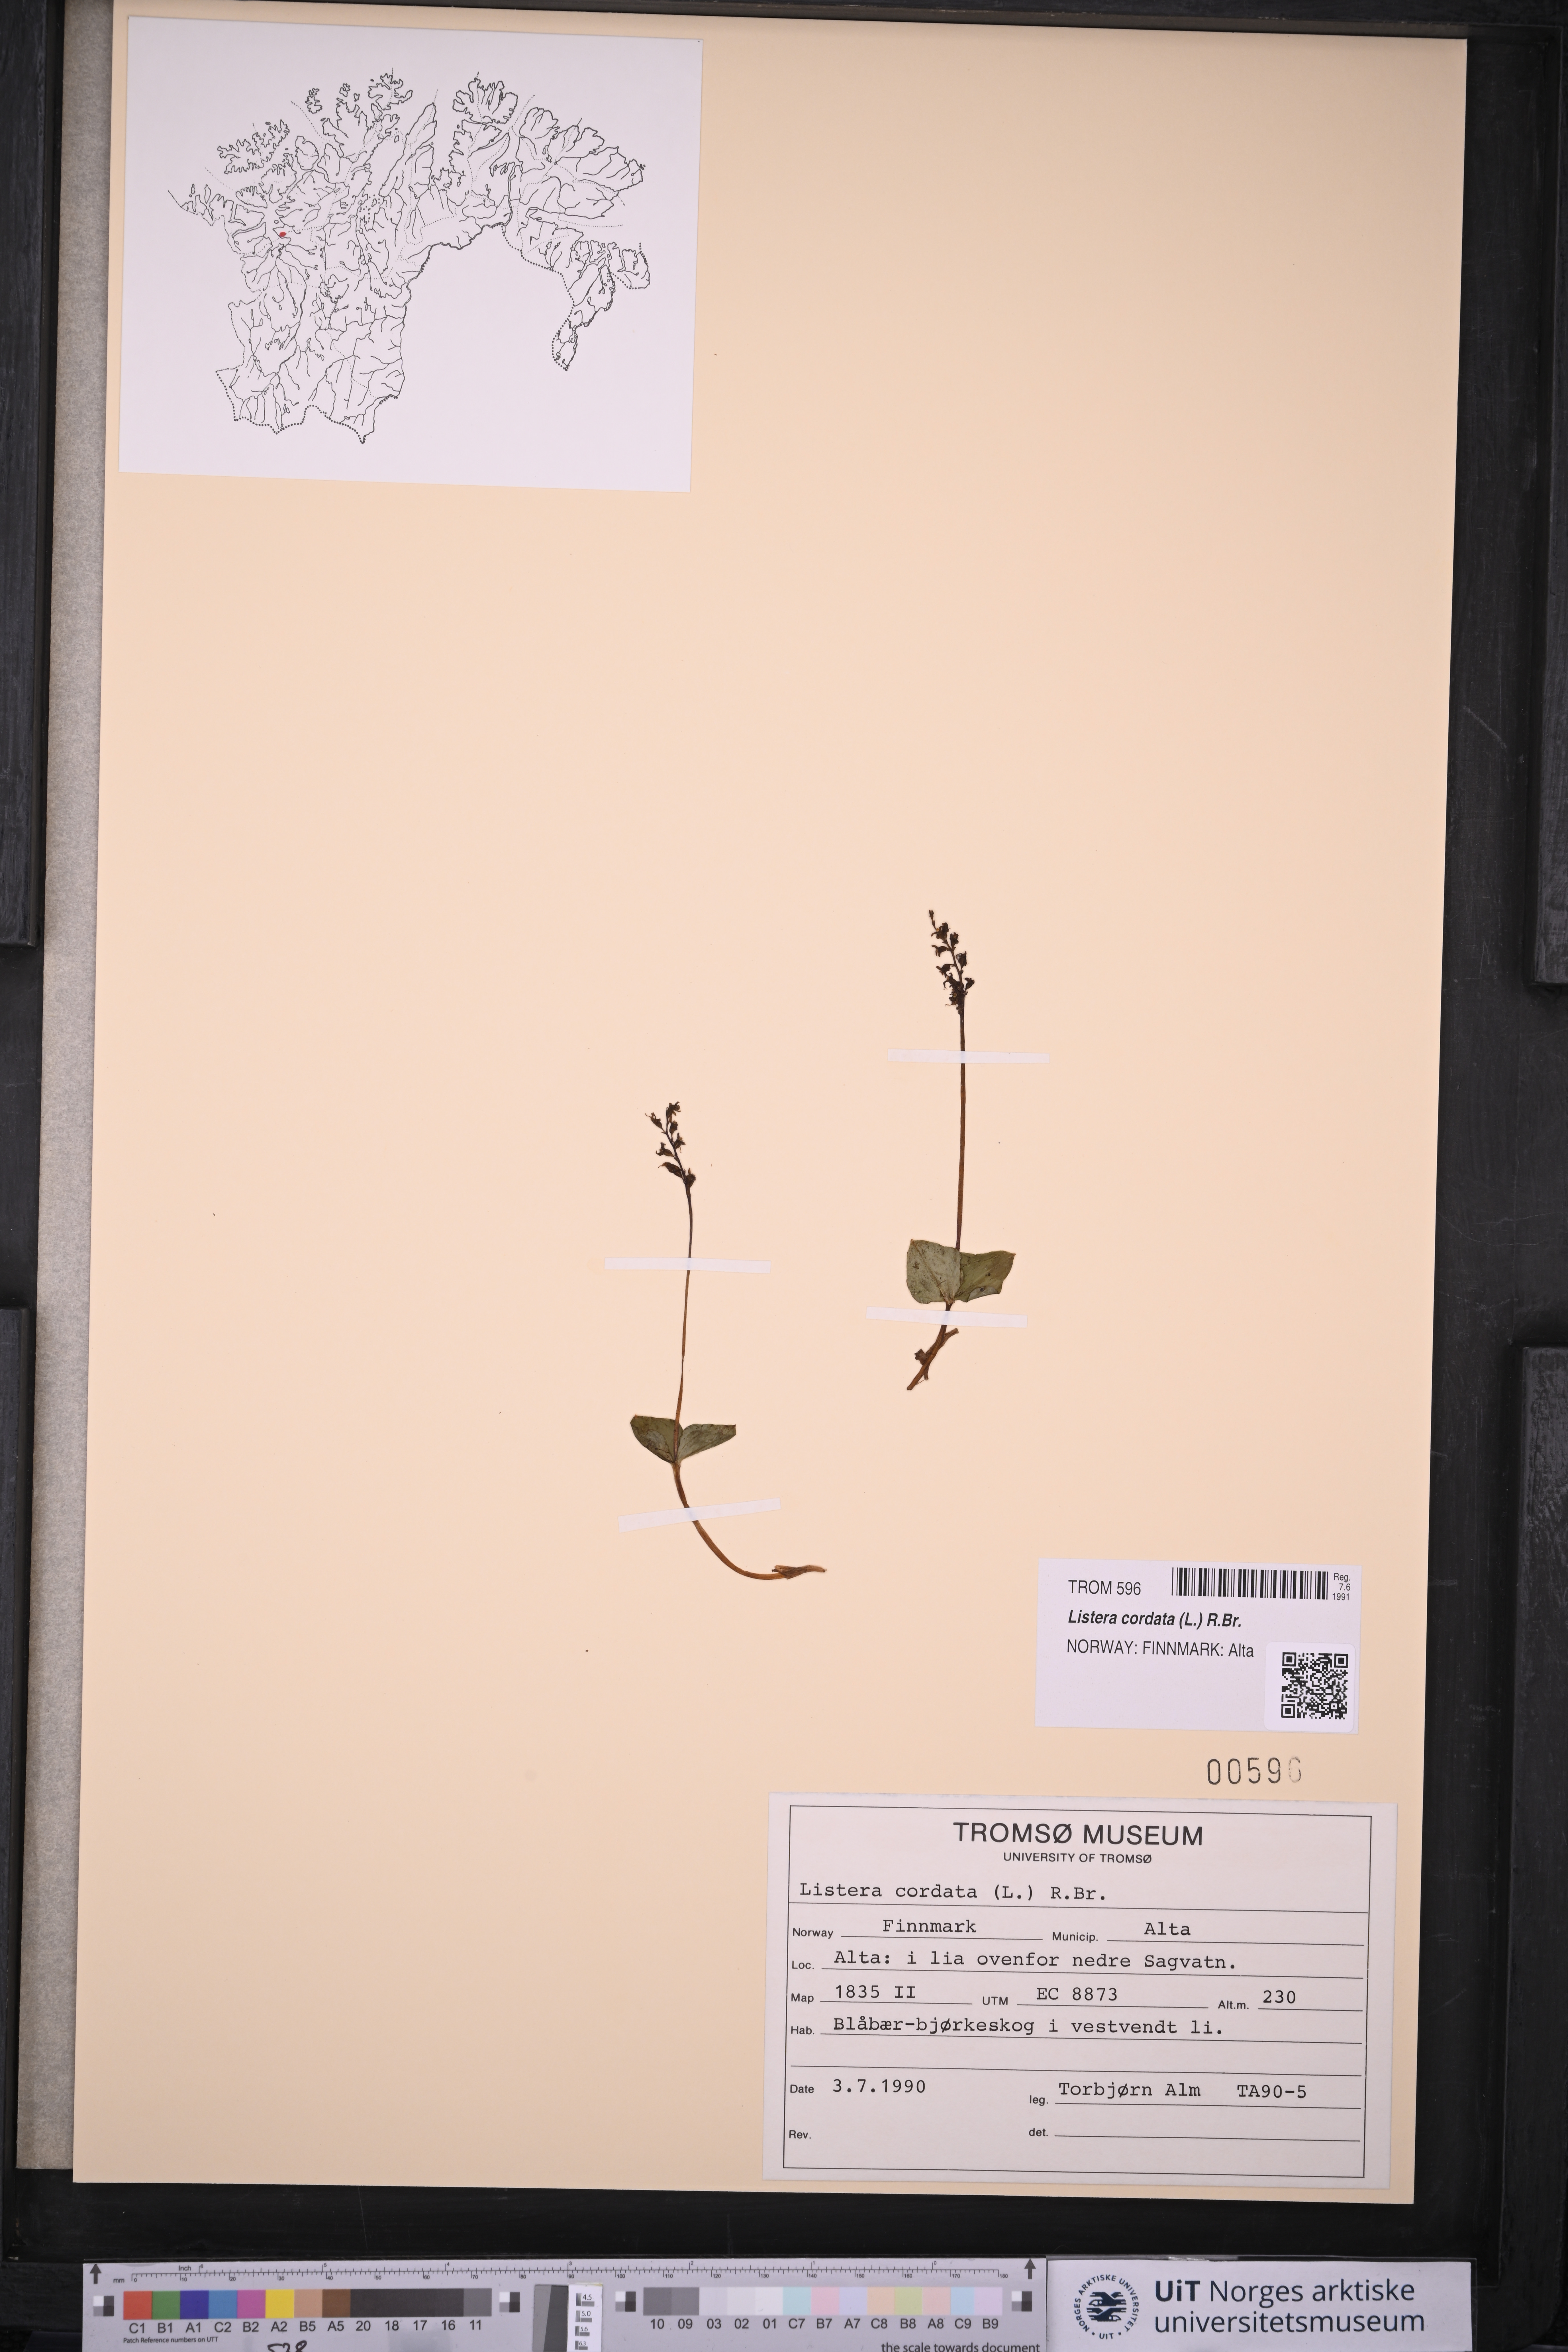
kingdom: Plantae
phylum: Tracheophyta
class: Liliopsida
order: Asparagales
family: Orchidaceae
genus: Neottia
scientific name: Neottia cordata
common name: Lesser twayblade
